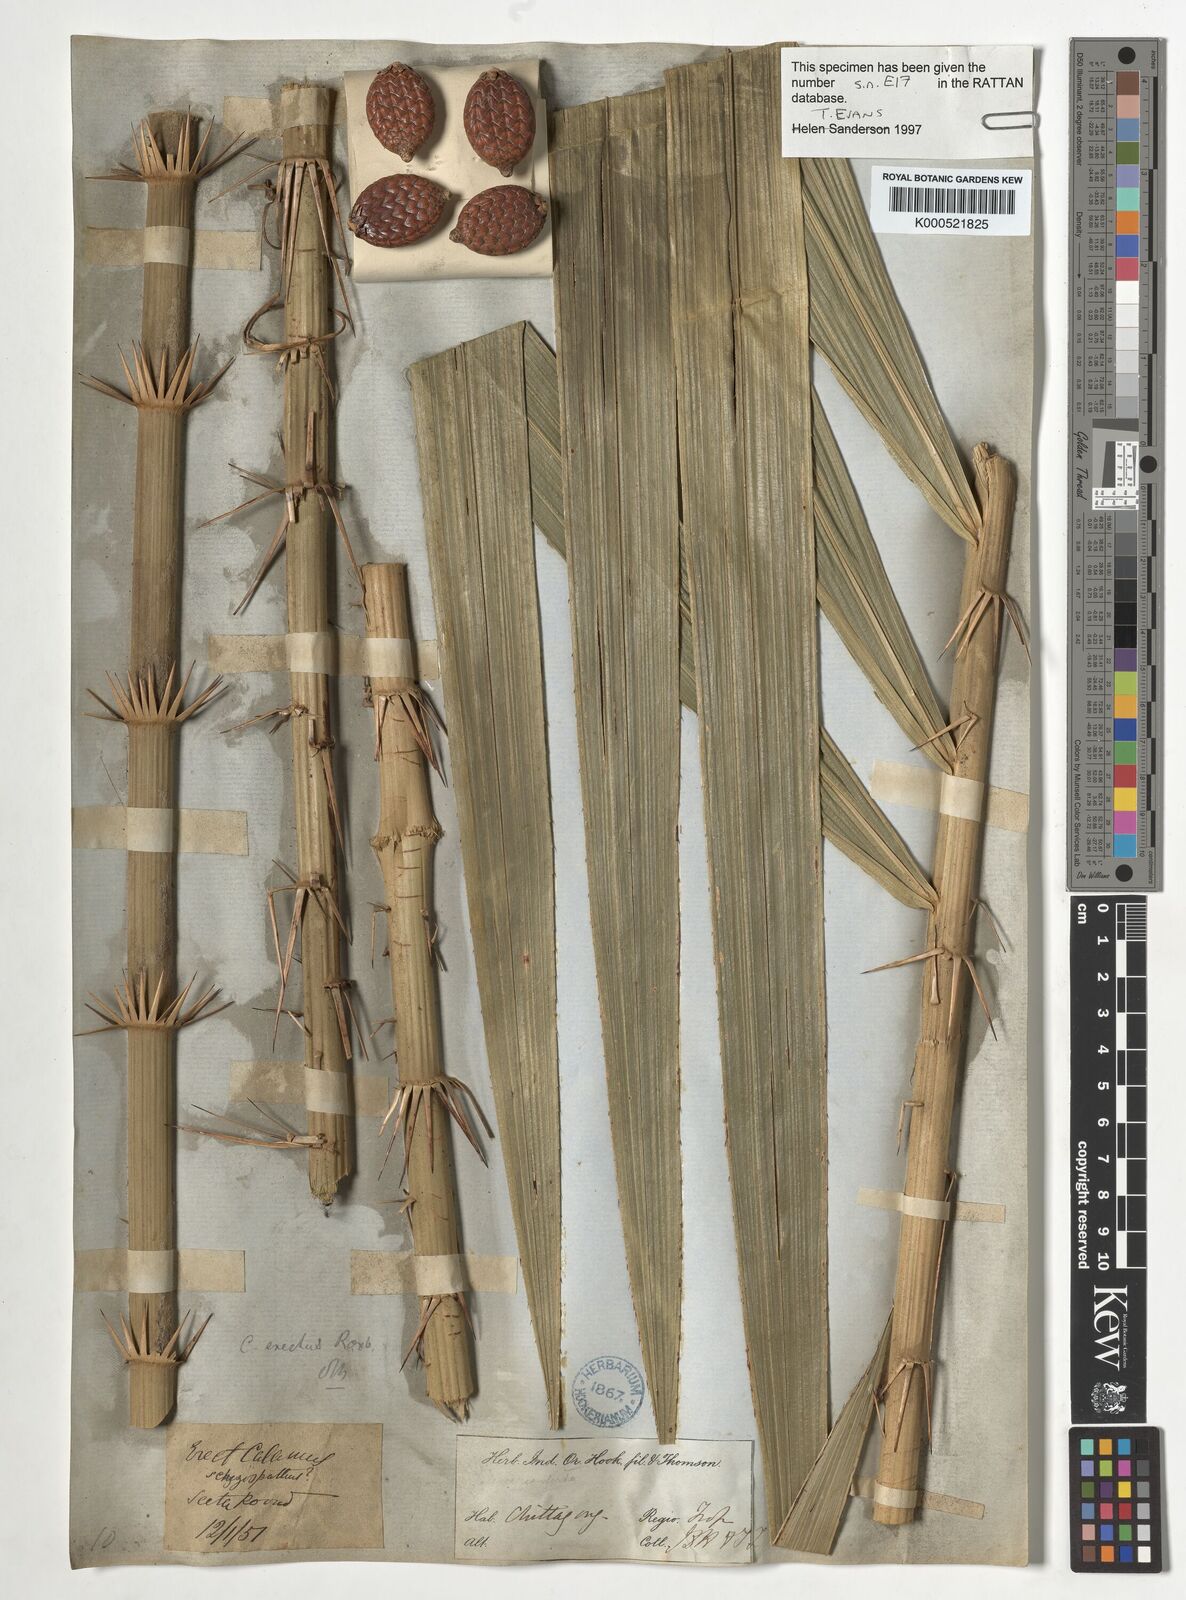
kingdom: Plantae
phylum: Tracheophyta
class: Liliopsida
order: Arecales
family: Arecaceae
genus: Calamus
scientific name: Calamus erectus
